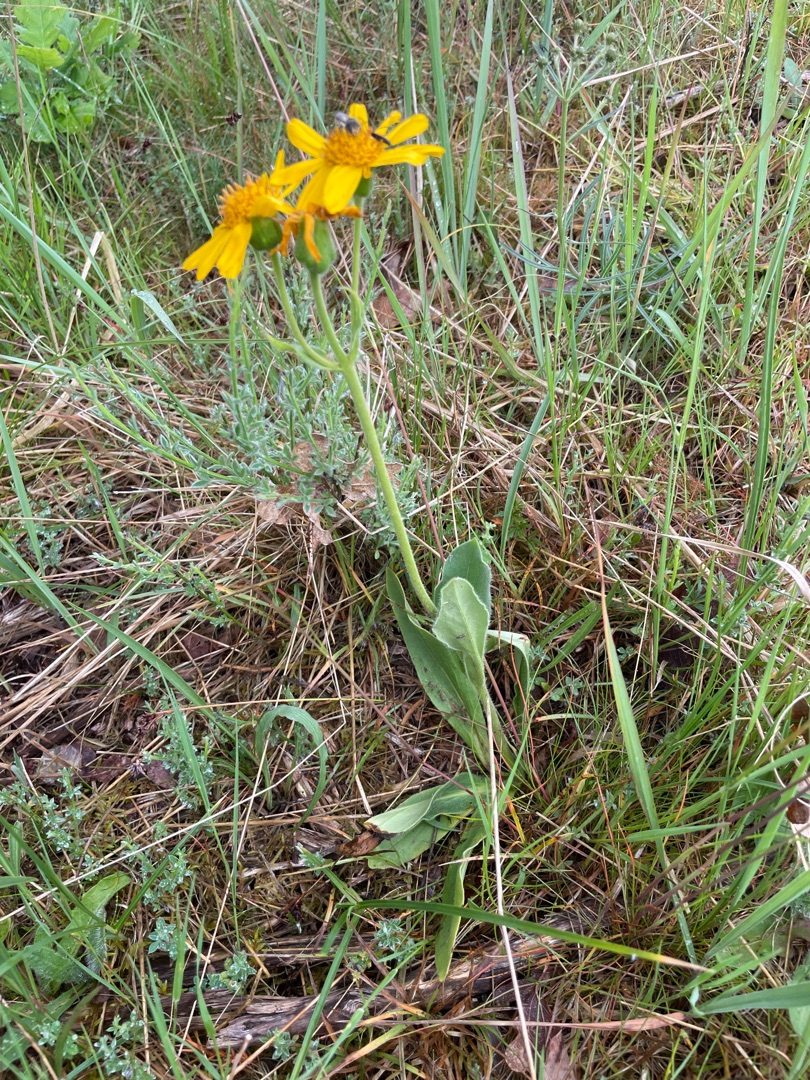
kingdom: Plantae
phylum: Tracheophyta
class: Magnoliopsida
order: Asterales
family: Asteraceae
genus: Arnica
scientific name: Arnica montana
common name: Guldblomme
